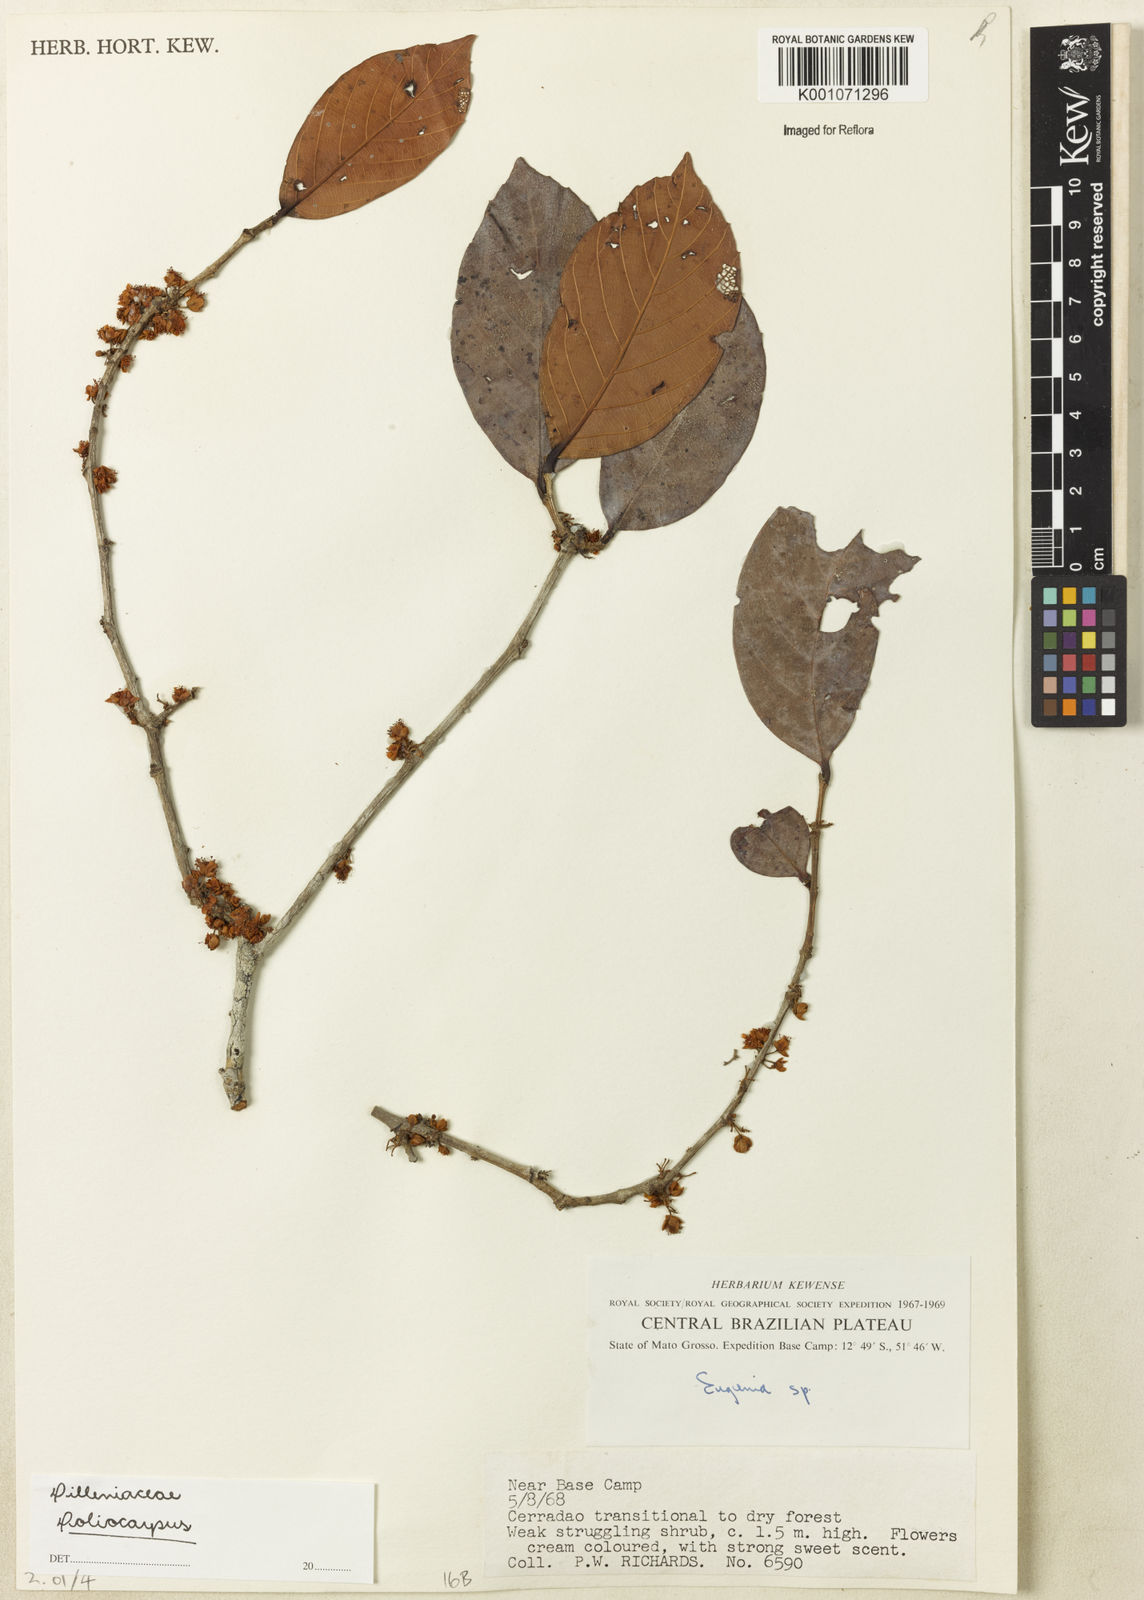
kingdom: Plantae
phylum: Tracheophyta
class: Magnoliopsida
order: Dilleniales
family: Dilleniaceae
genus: Doliocarpus
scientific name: Doliocarpus
